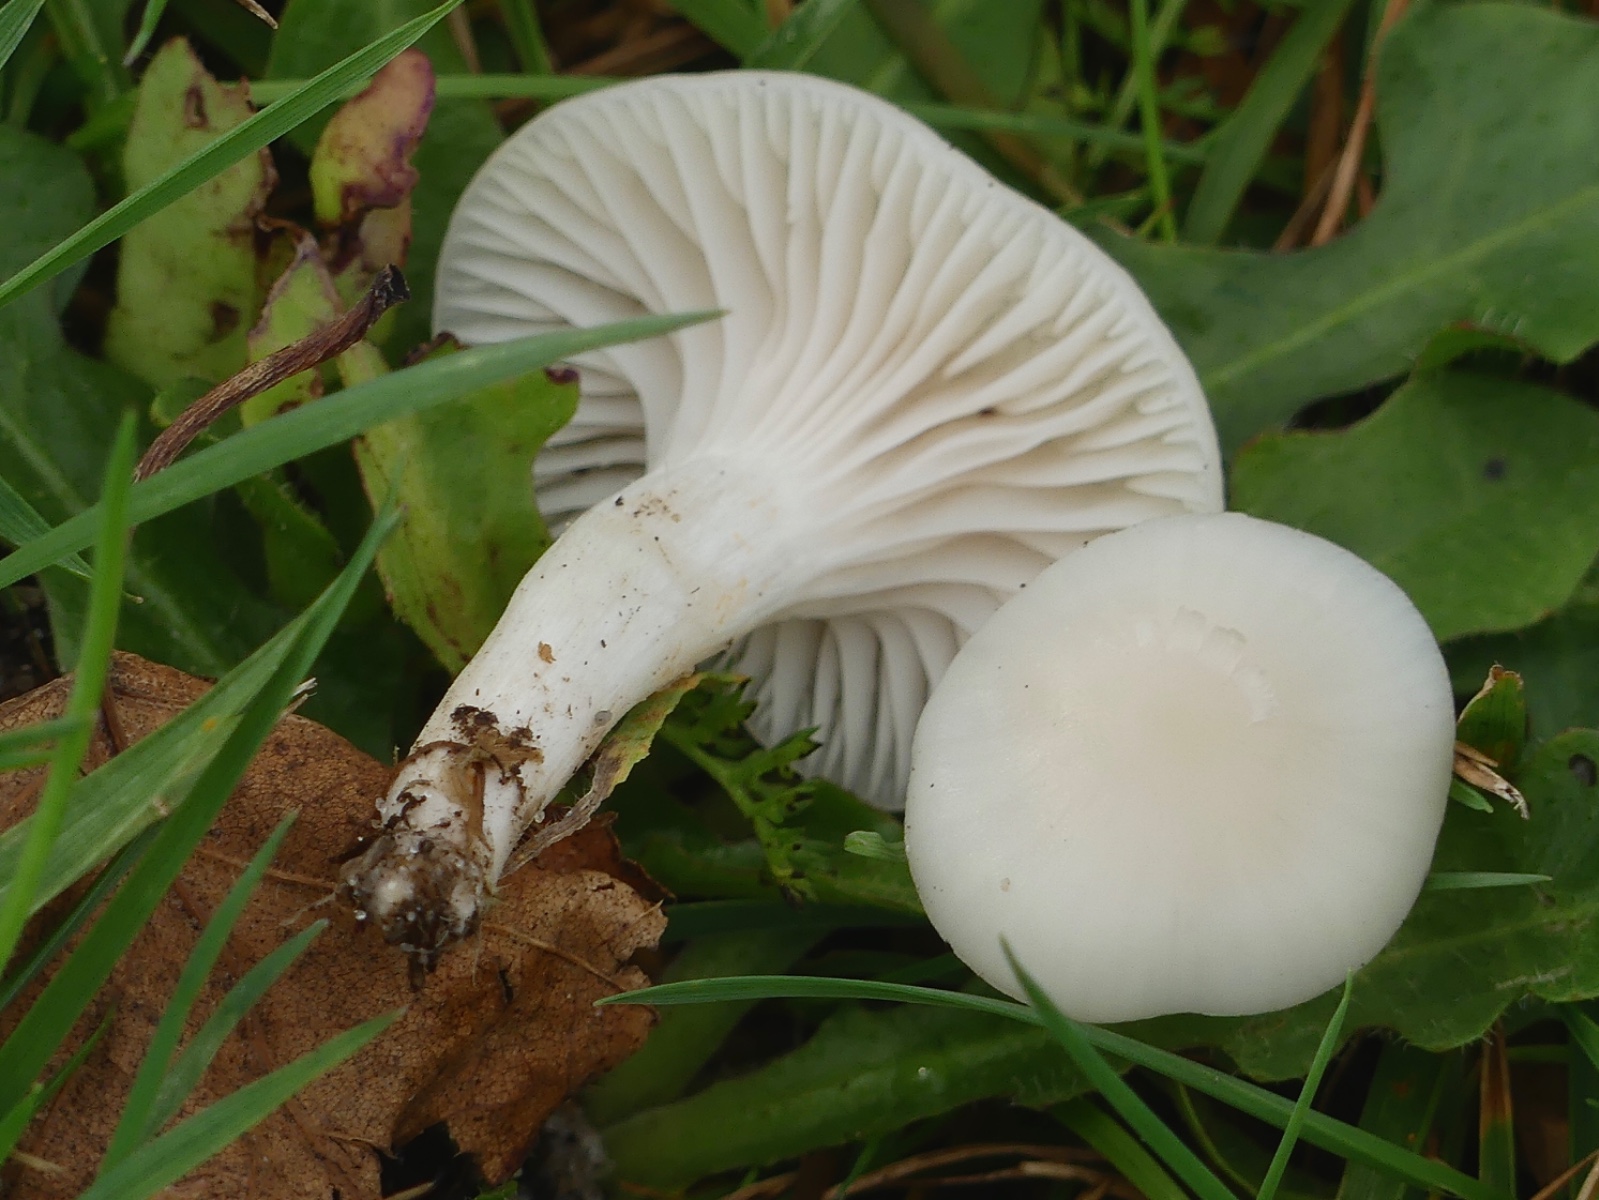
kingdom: Fungi
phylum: Basidiomycota
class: Agaricomycetes
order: Agaricales
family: Hygrophoraceae
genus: Cuphophyllus
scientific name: Cuphophyllus virgineus
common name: snehvid vokshat
